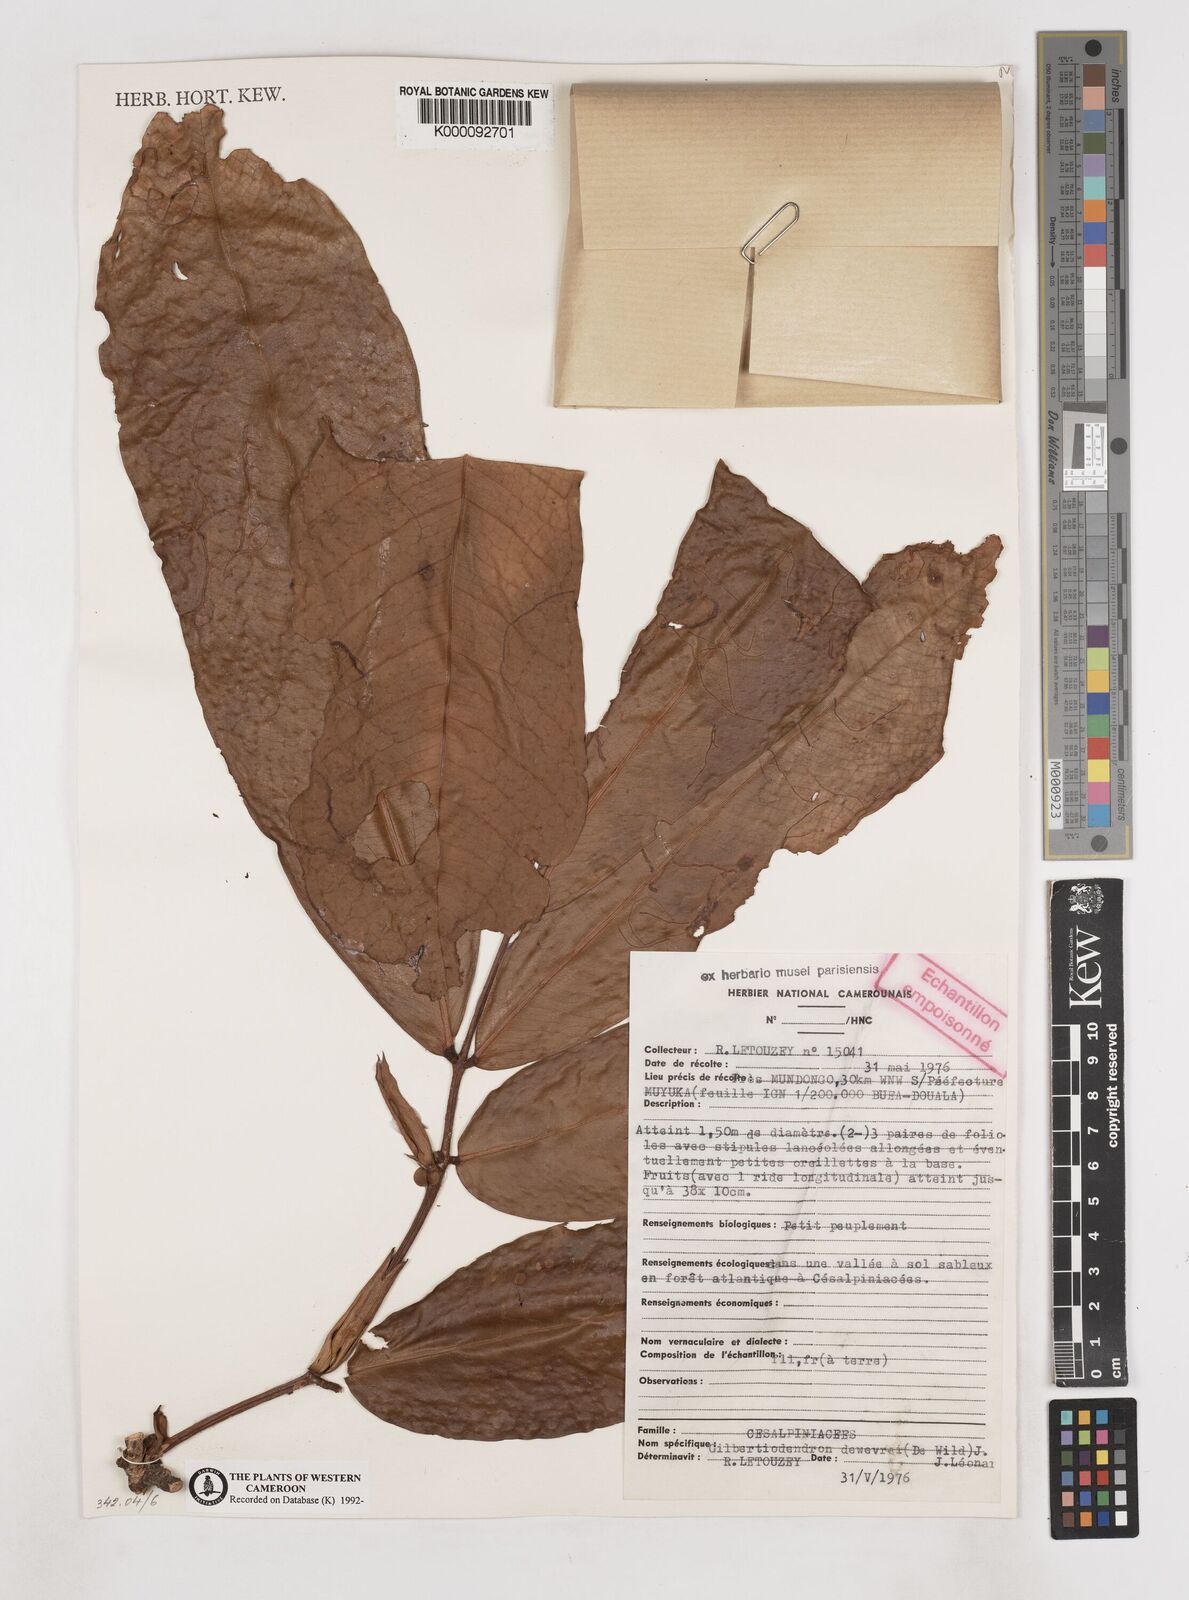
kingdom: Plantae
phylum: Tracheophyta
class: Magnoliopsida
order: Fabales
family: Fabaceae
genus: Gilbertiodendron
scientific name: Gilbertiodendron
